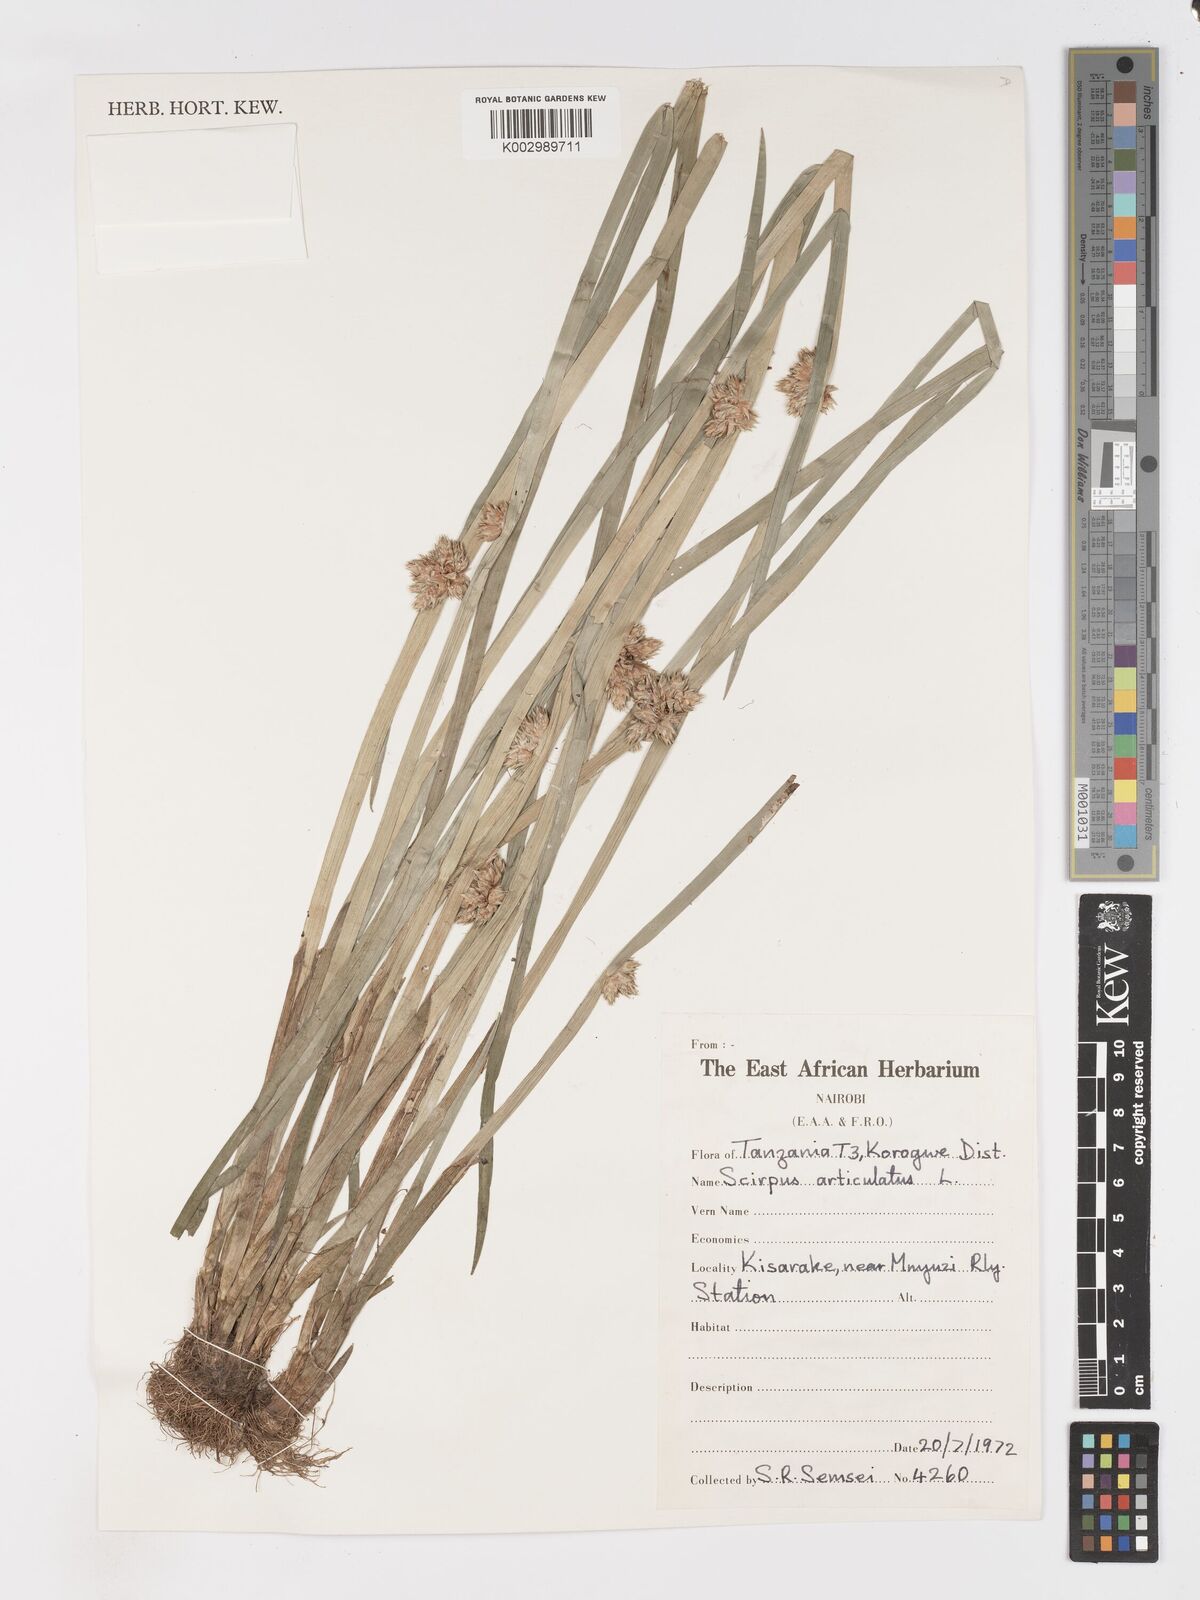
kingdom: Plantae
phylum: Tracheophyta
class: Liliopsida
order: Poales
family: Cyperaceae
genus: Schoenoplectiella
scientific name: Schoenoplectiella articulata
